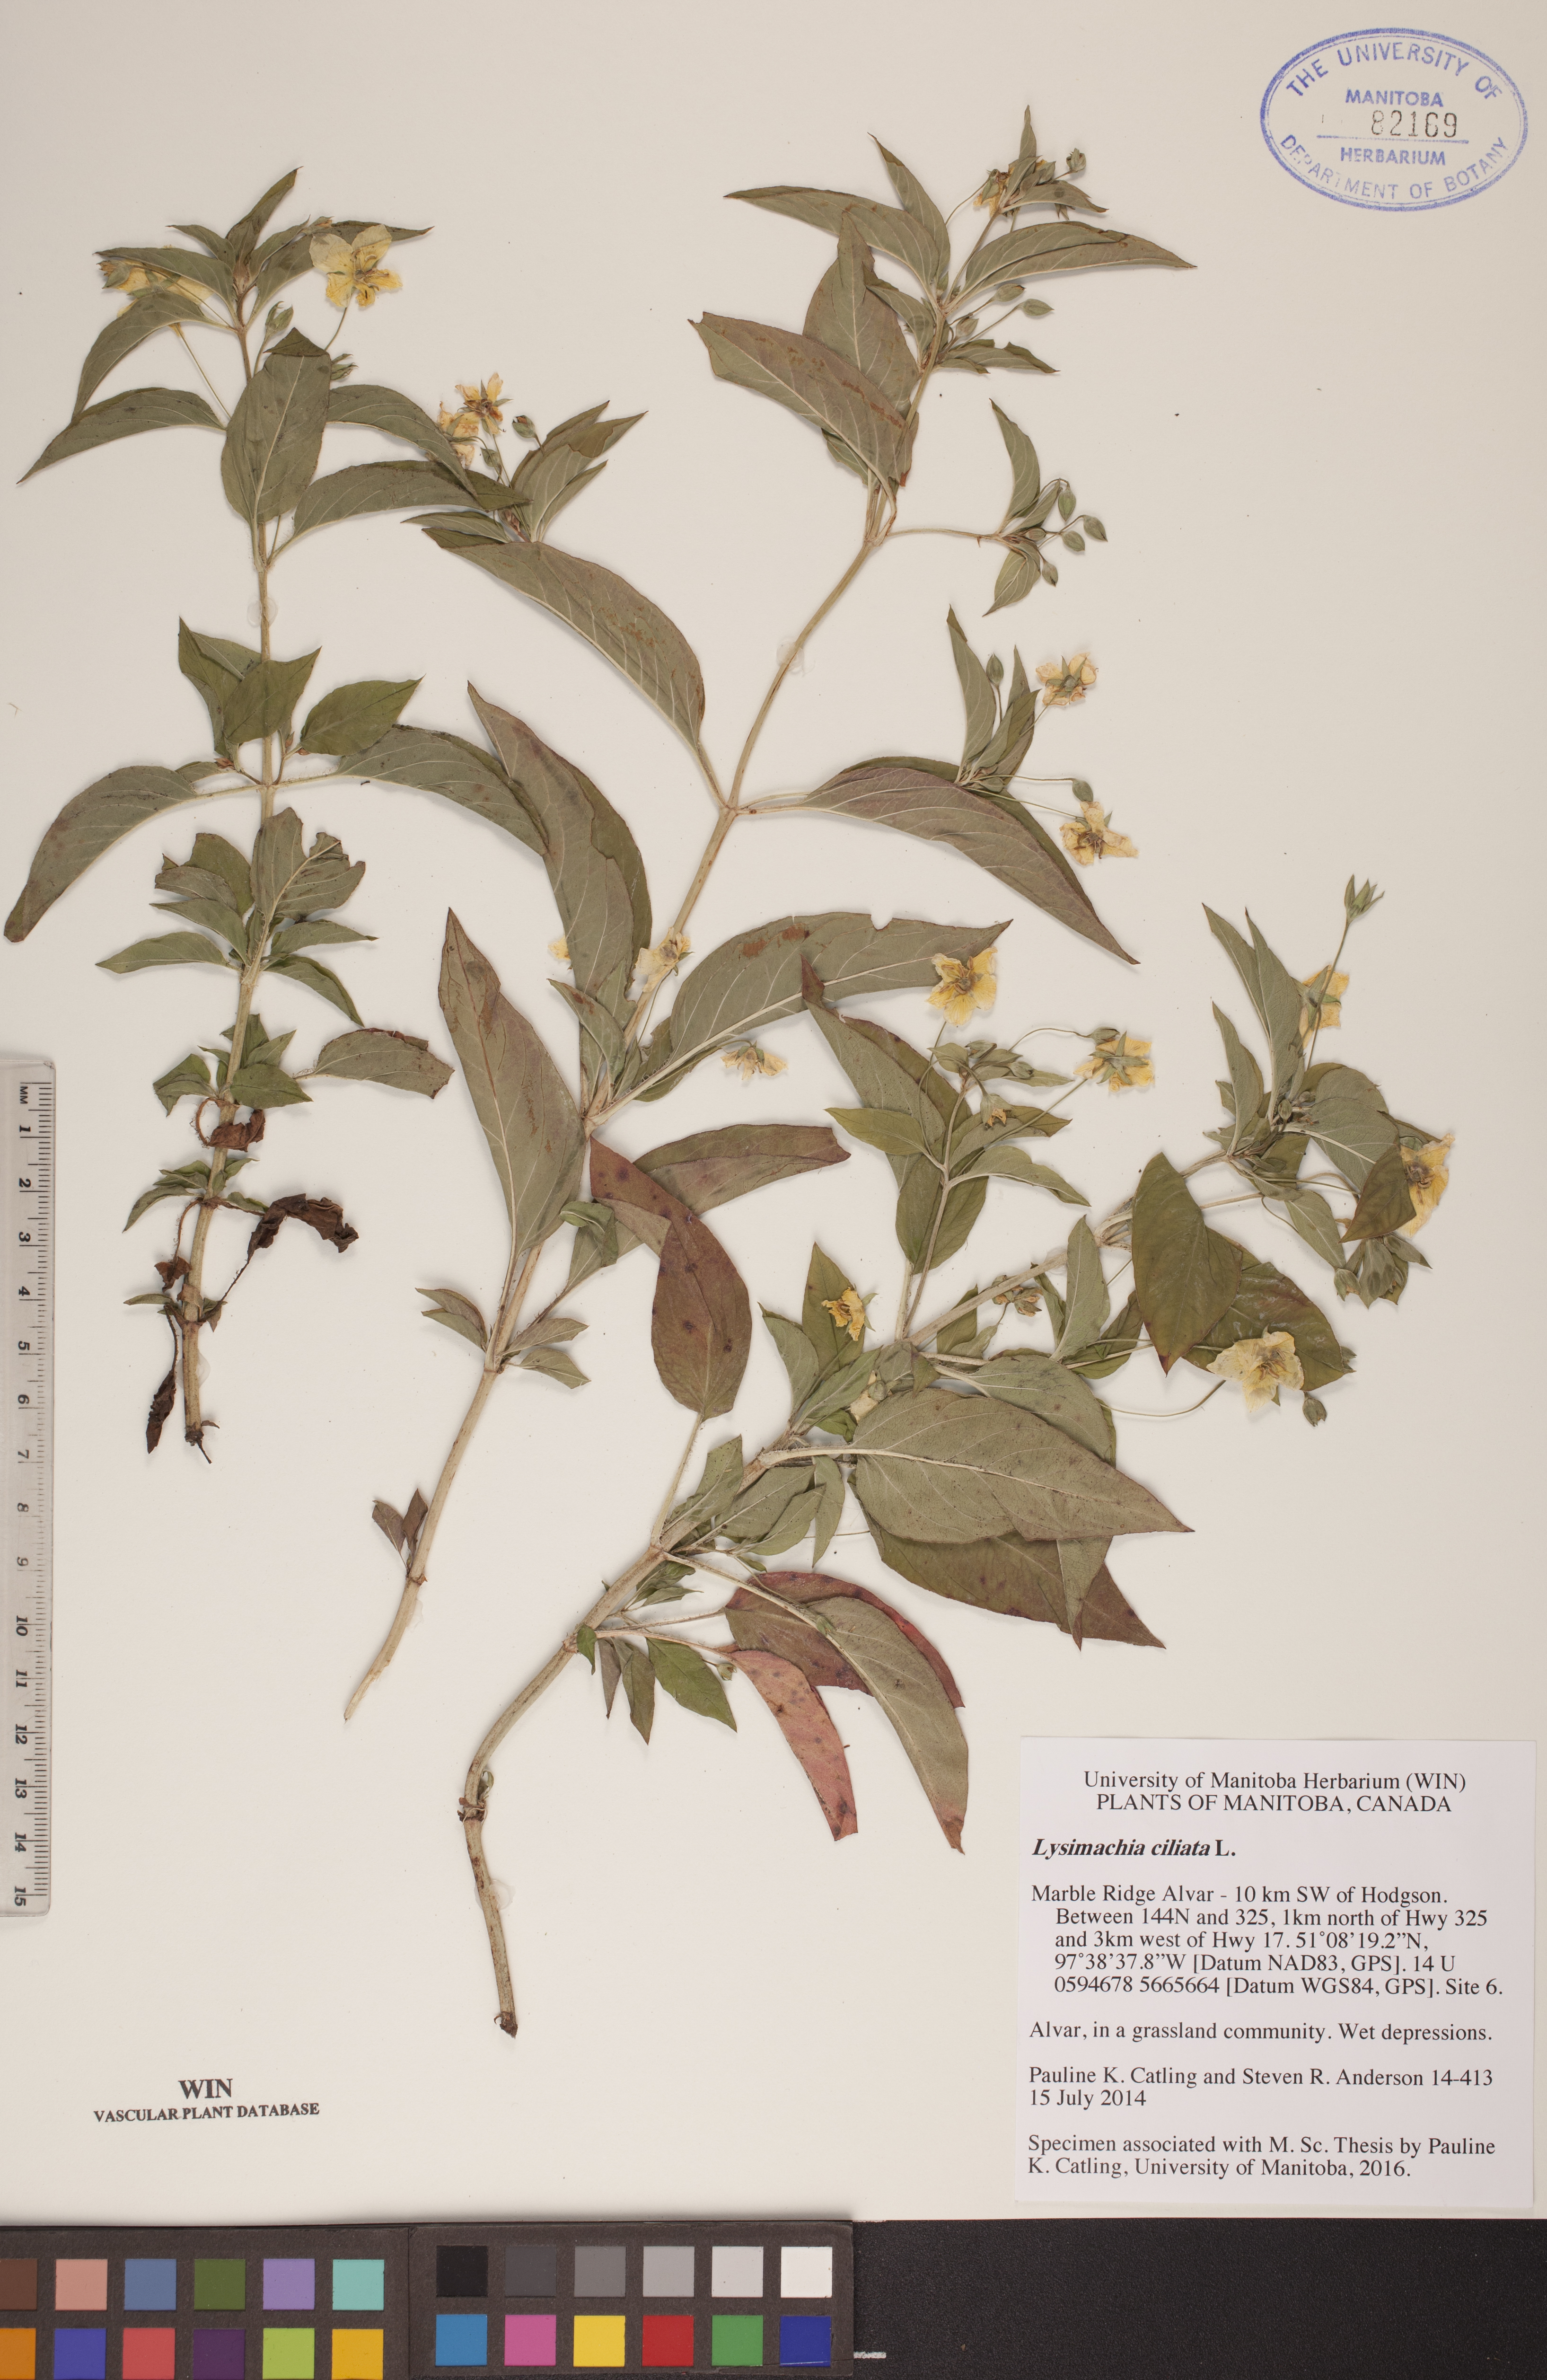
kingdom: Plantae
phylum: Tracheophyta
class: Magnoliopsida
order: Ericales
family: Primulaceae
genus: Lysimachia
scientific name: Lysimachia ciliata
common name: Fringed loosestrife
